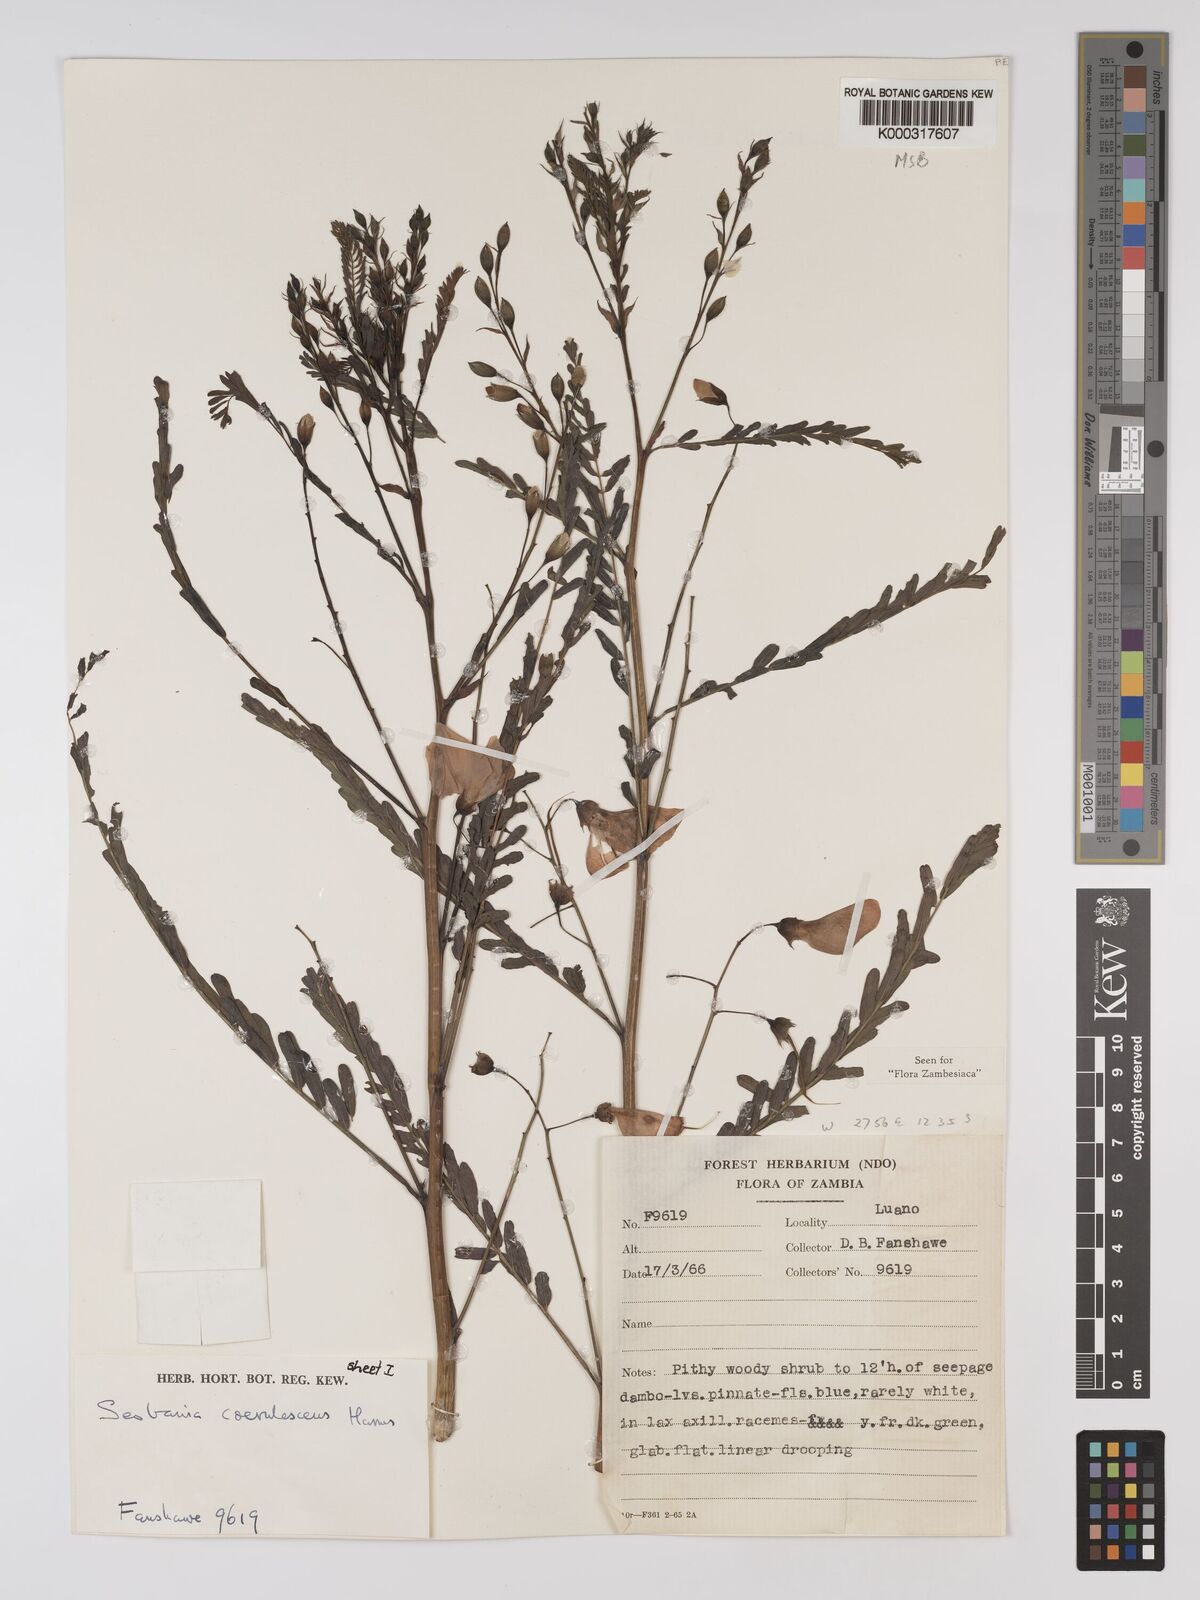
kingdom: Plantae
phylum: Tracheophyta
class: Magnoliopsida
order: Fabales
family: Fabaceae
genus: Sesbania
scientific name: Sesbania coerulescens
